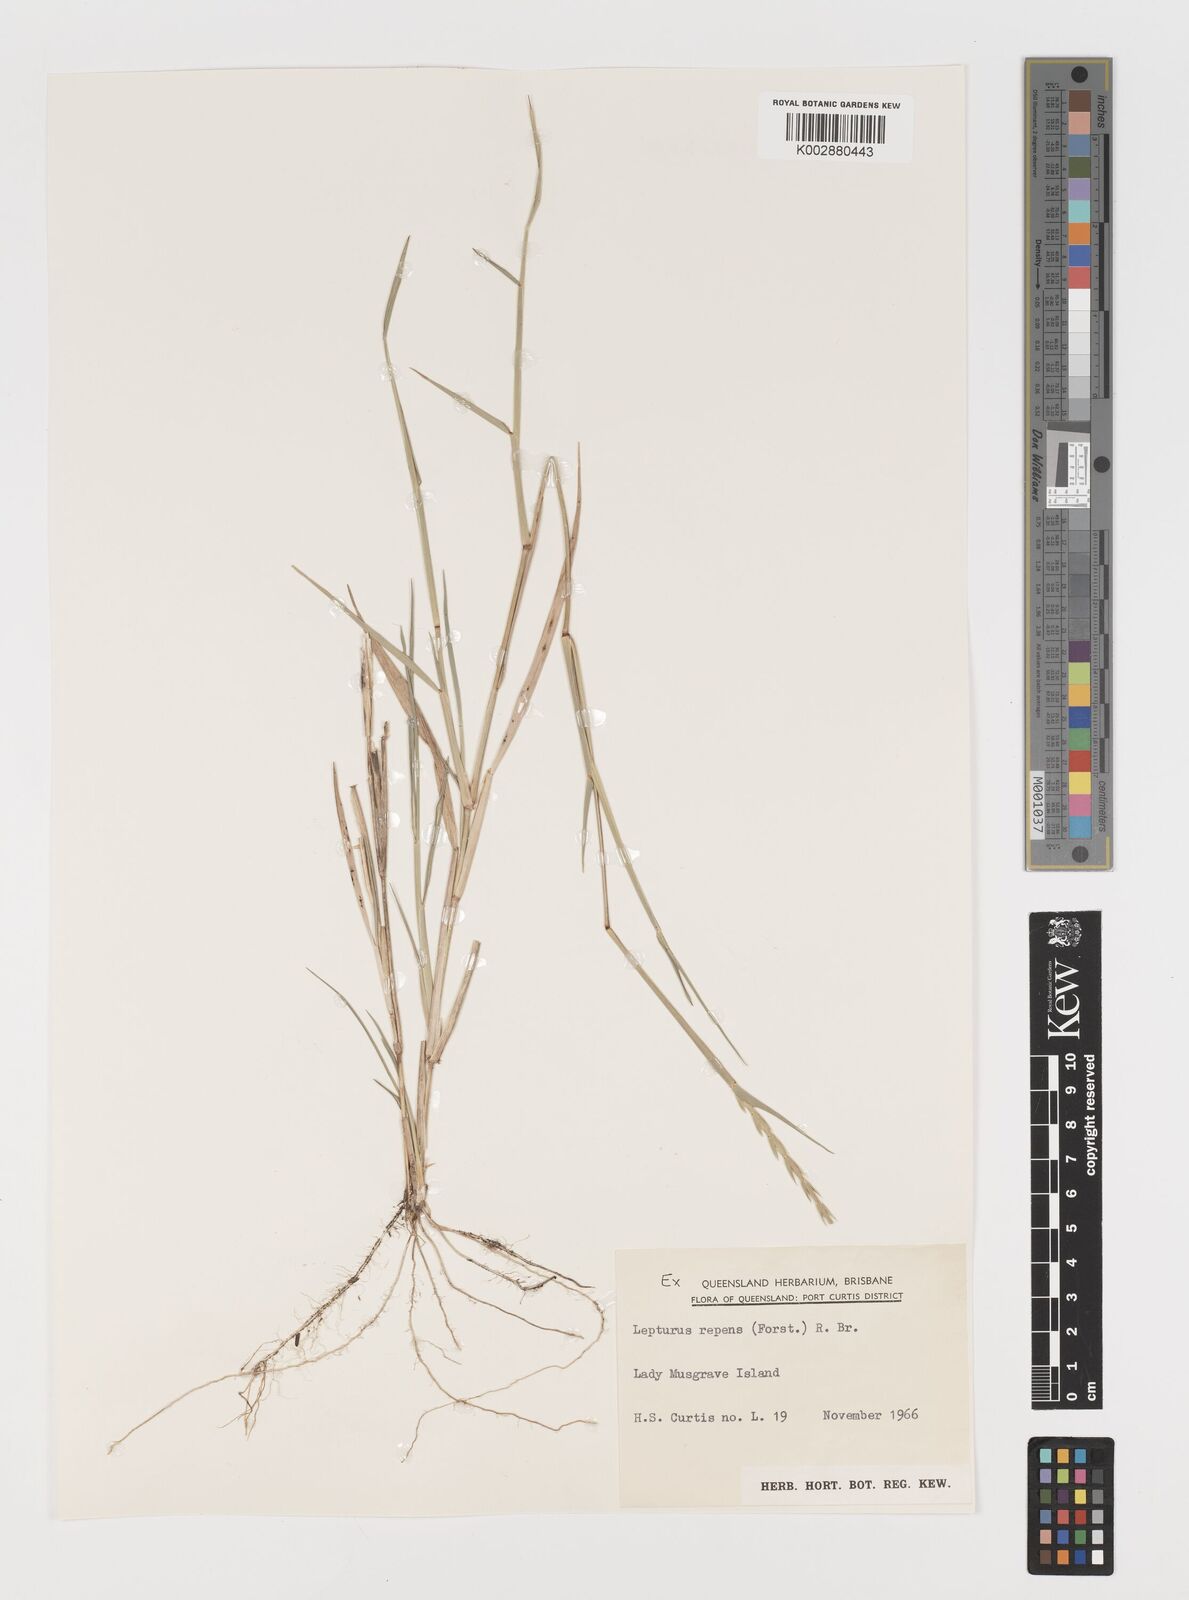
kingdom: Plantae
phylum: Tracheophyta
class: Liliopsida
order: Poales
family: Poaceae
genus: Lepturus
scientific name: Lepturus repens
